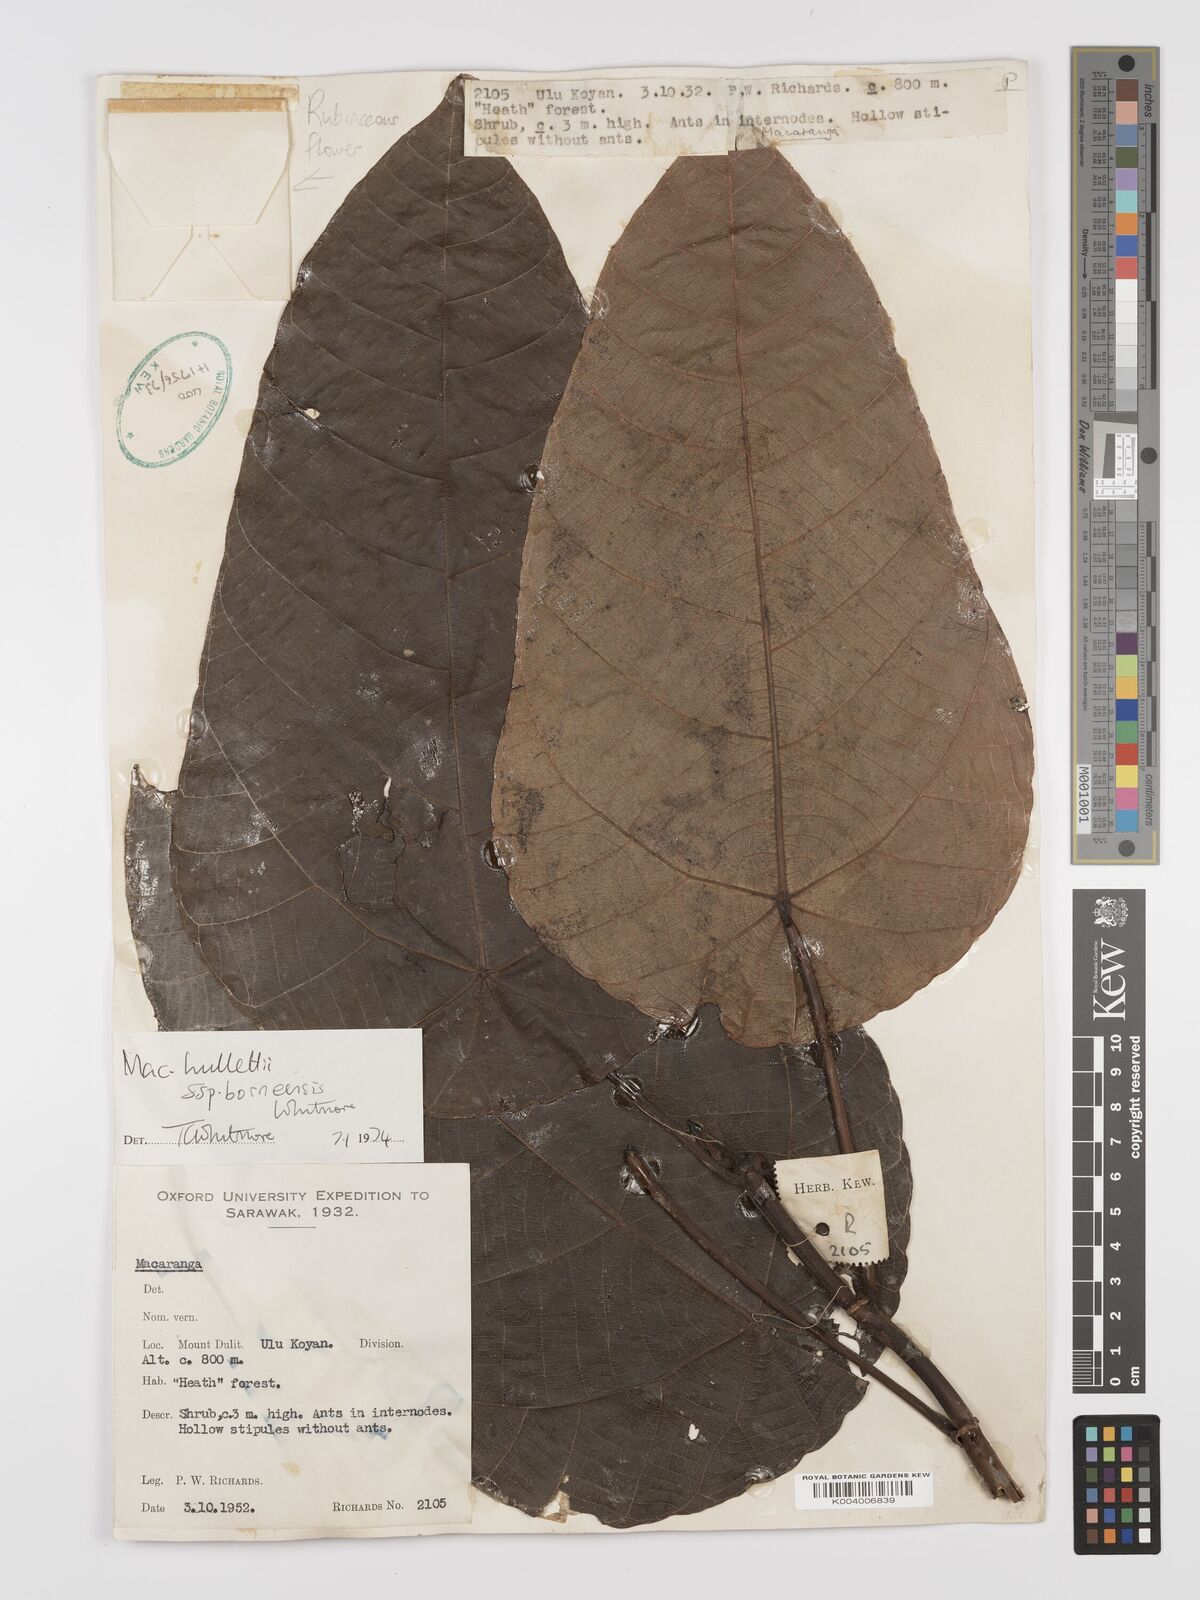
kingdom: Plantae
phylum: Tracheophyta
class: Magnoliopsida
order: Malpighiales
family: Euphorbiaceae
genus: Macaranga
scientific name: Macaranga hullettii
